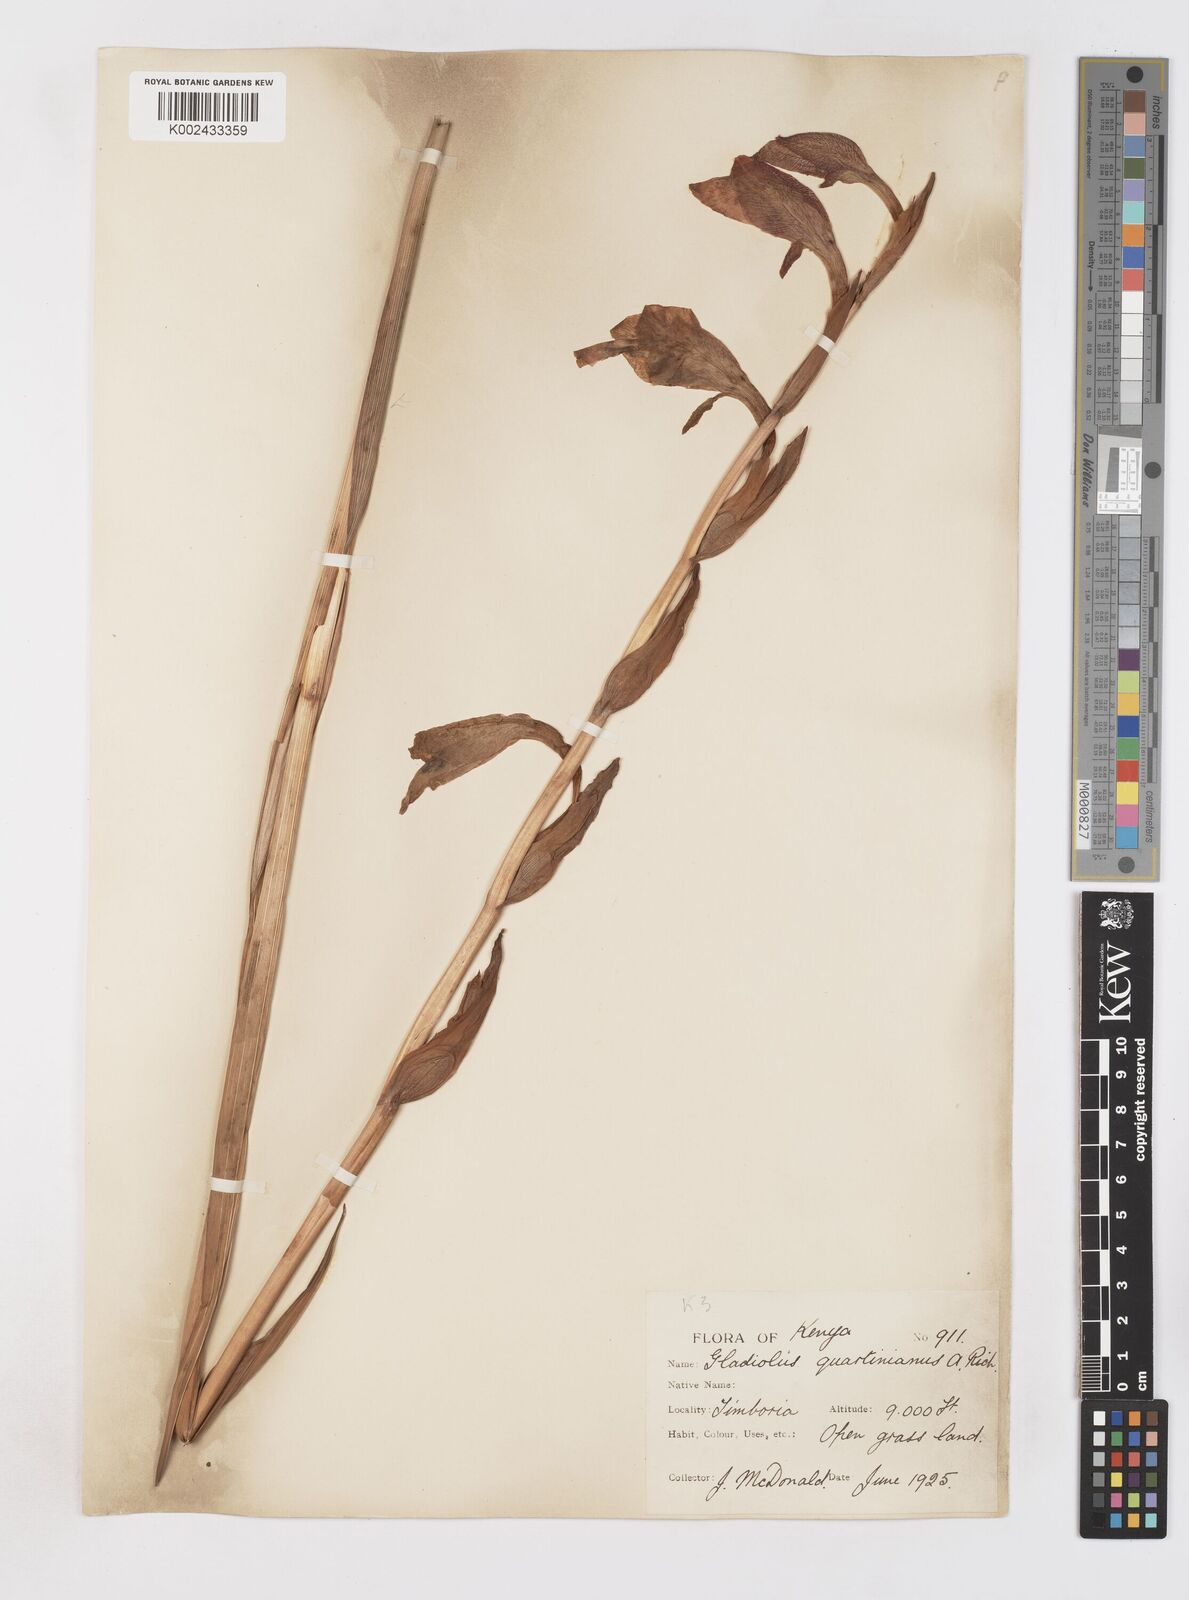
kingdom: Plantae
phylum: Tracheophyta
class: Liliopsida
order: Asparagales
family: Iridaceae
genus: Gladiolus
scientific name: Gladiolus dalenii
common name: Cornflag
